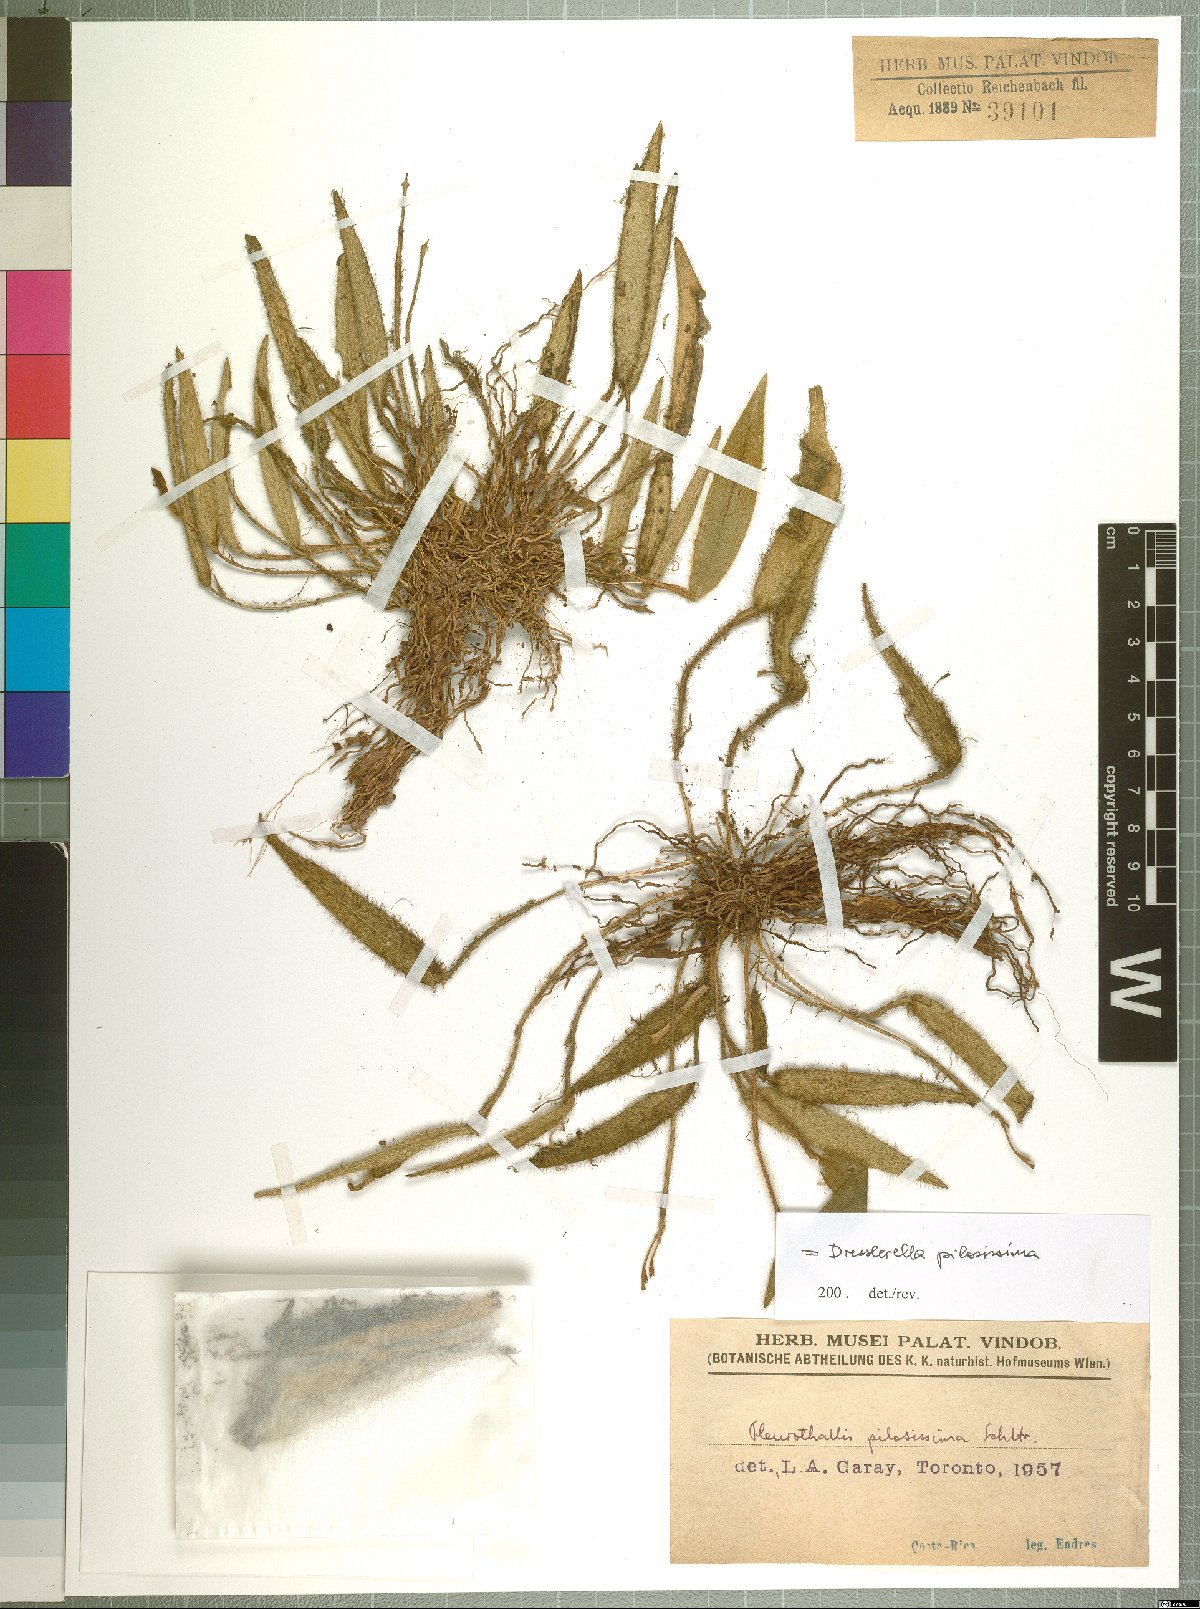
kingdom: Plantae
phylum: Tracheophyta
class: Liliopsida
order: Asparagales
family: Orchidaceae
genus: Dresslerella
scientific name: Dresslerella pilosissima
